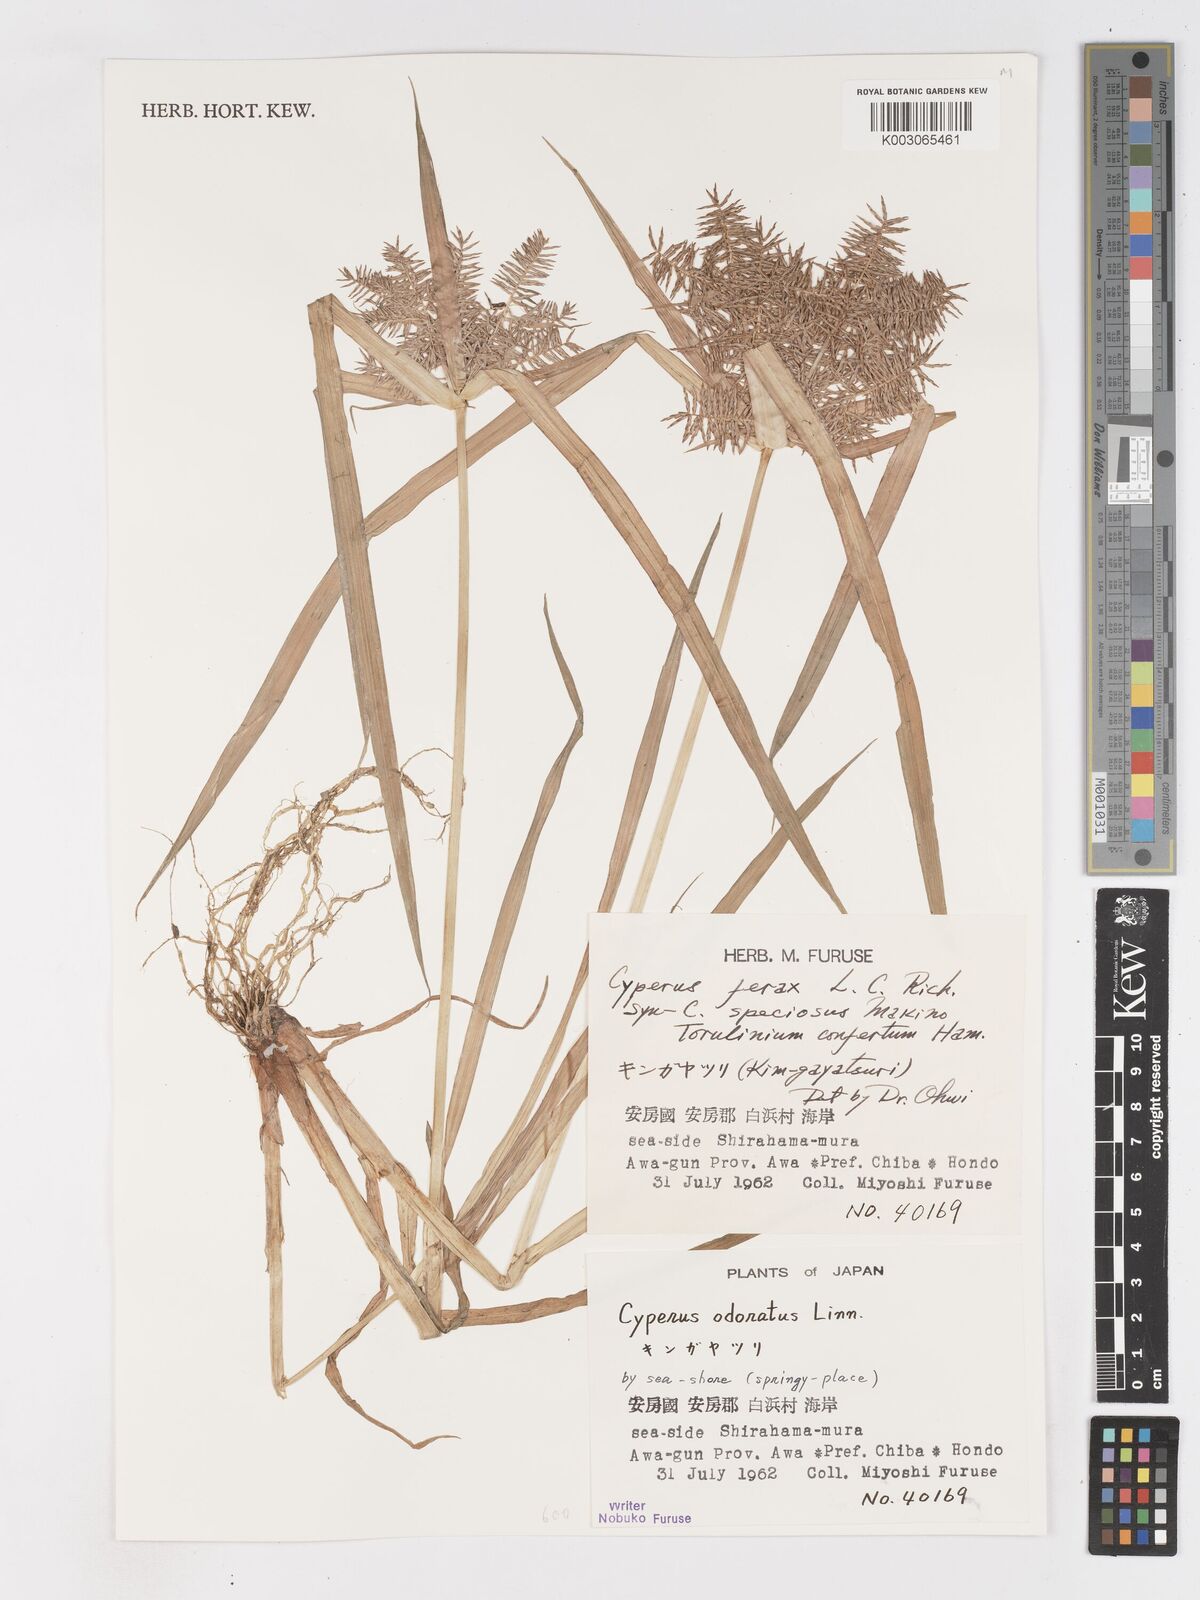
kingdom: Plantae
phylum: Tracheophyta
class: Liliopsida
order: Poales
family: Cyperaceae
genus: Cyperus
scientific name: Cyperus odoratus
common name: Fragrant flatsedge
